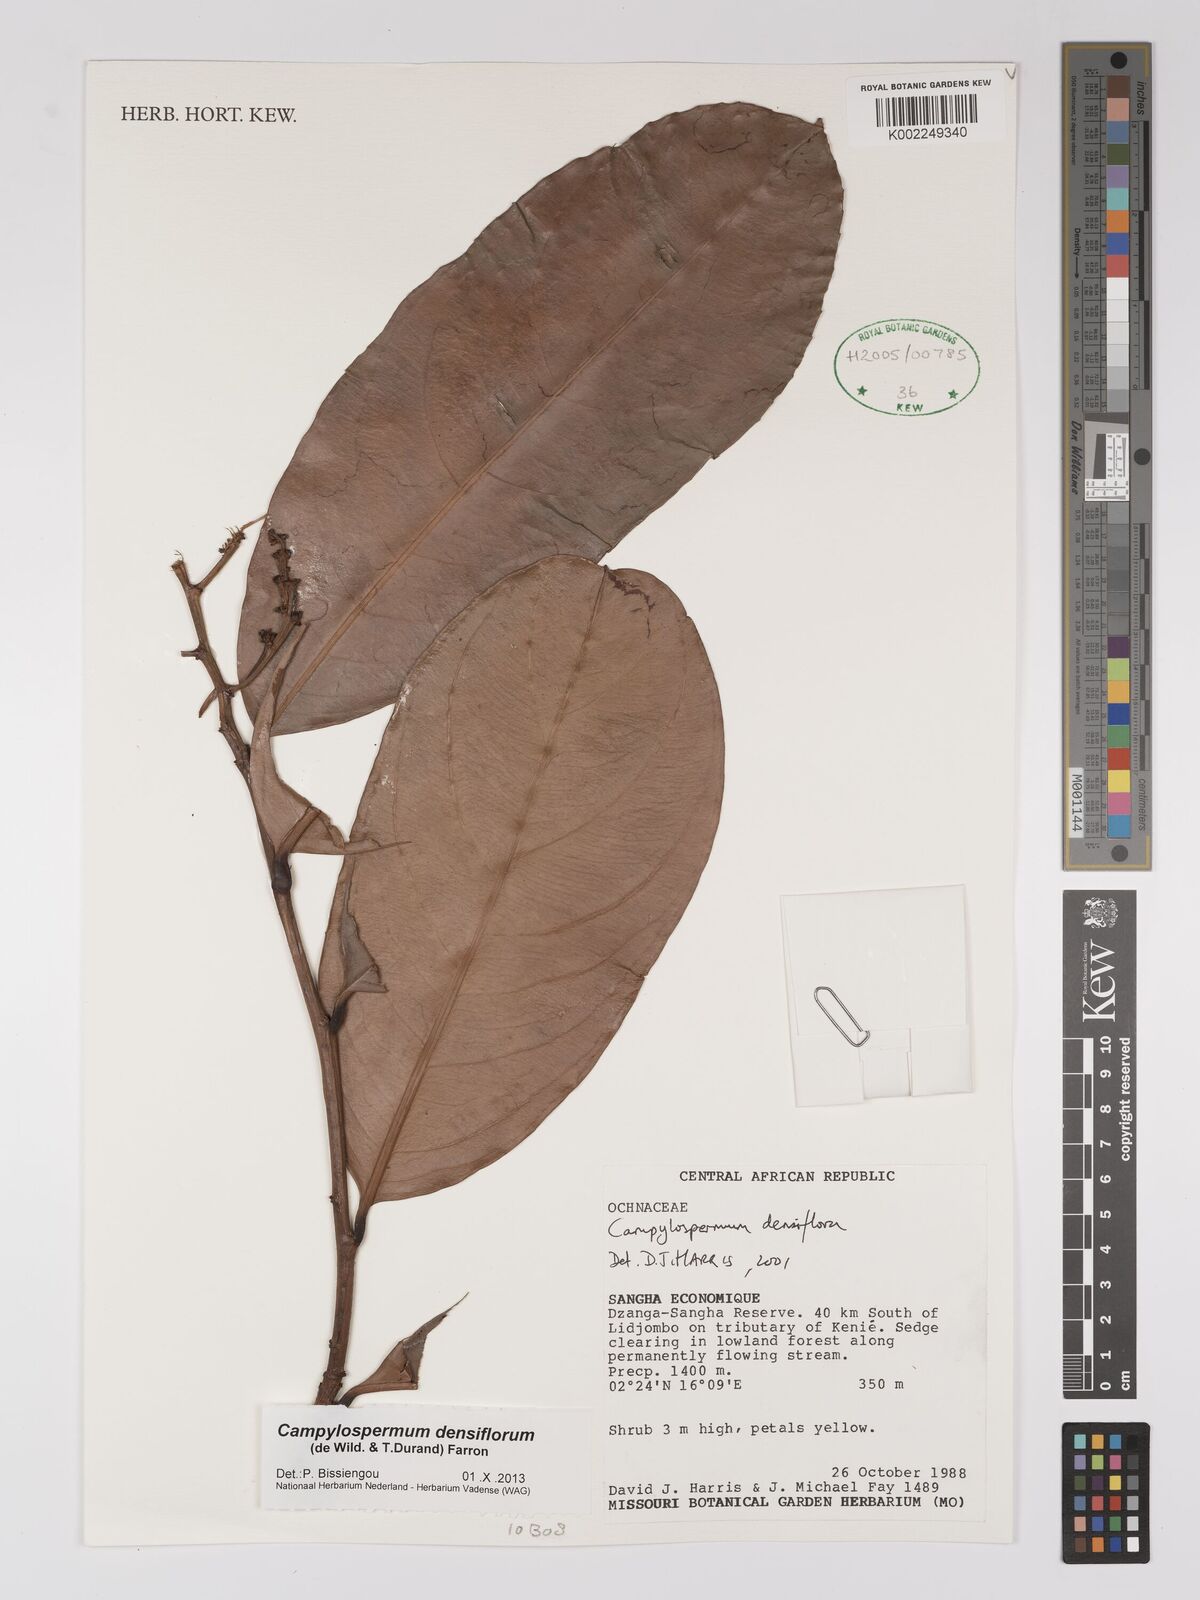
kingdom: Plantae
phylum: Tracheophyta
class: Magnoliopsida
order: Malpighiales
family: Ochnaceae
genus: Gomphia
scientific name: Gomphia densiflora
